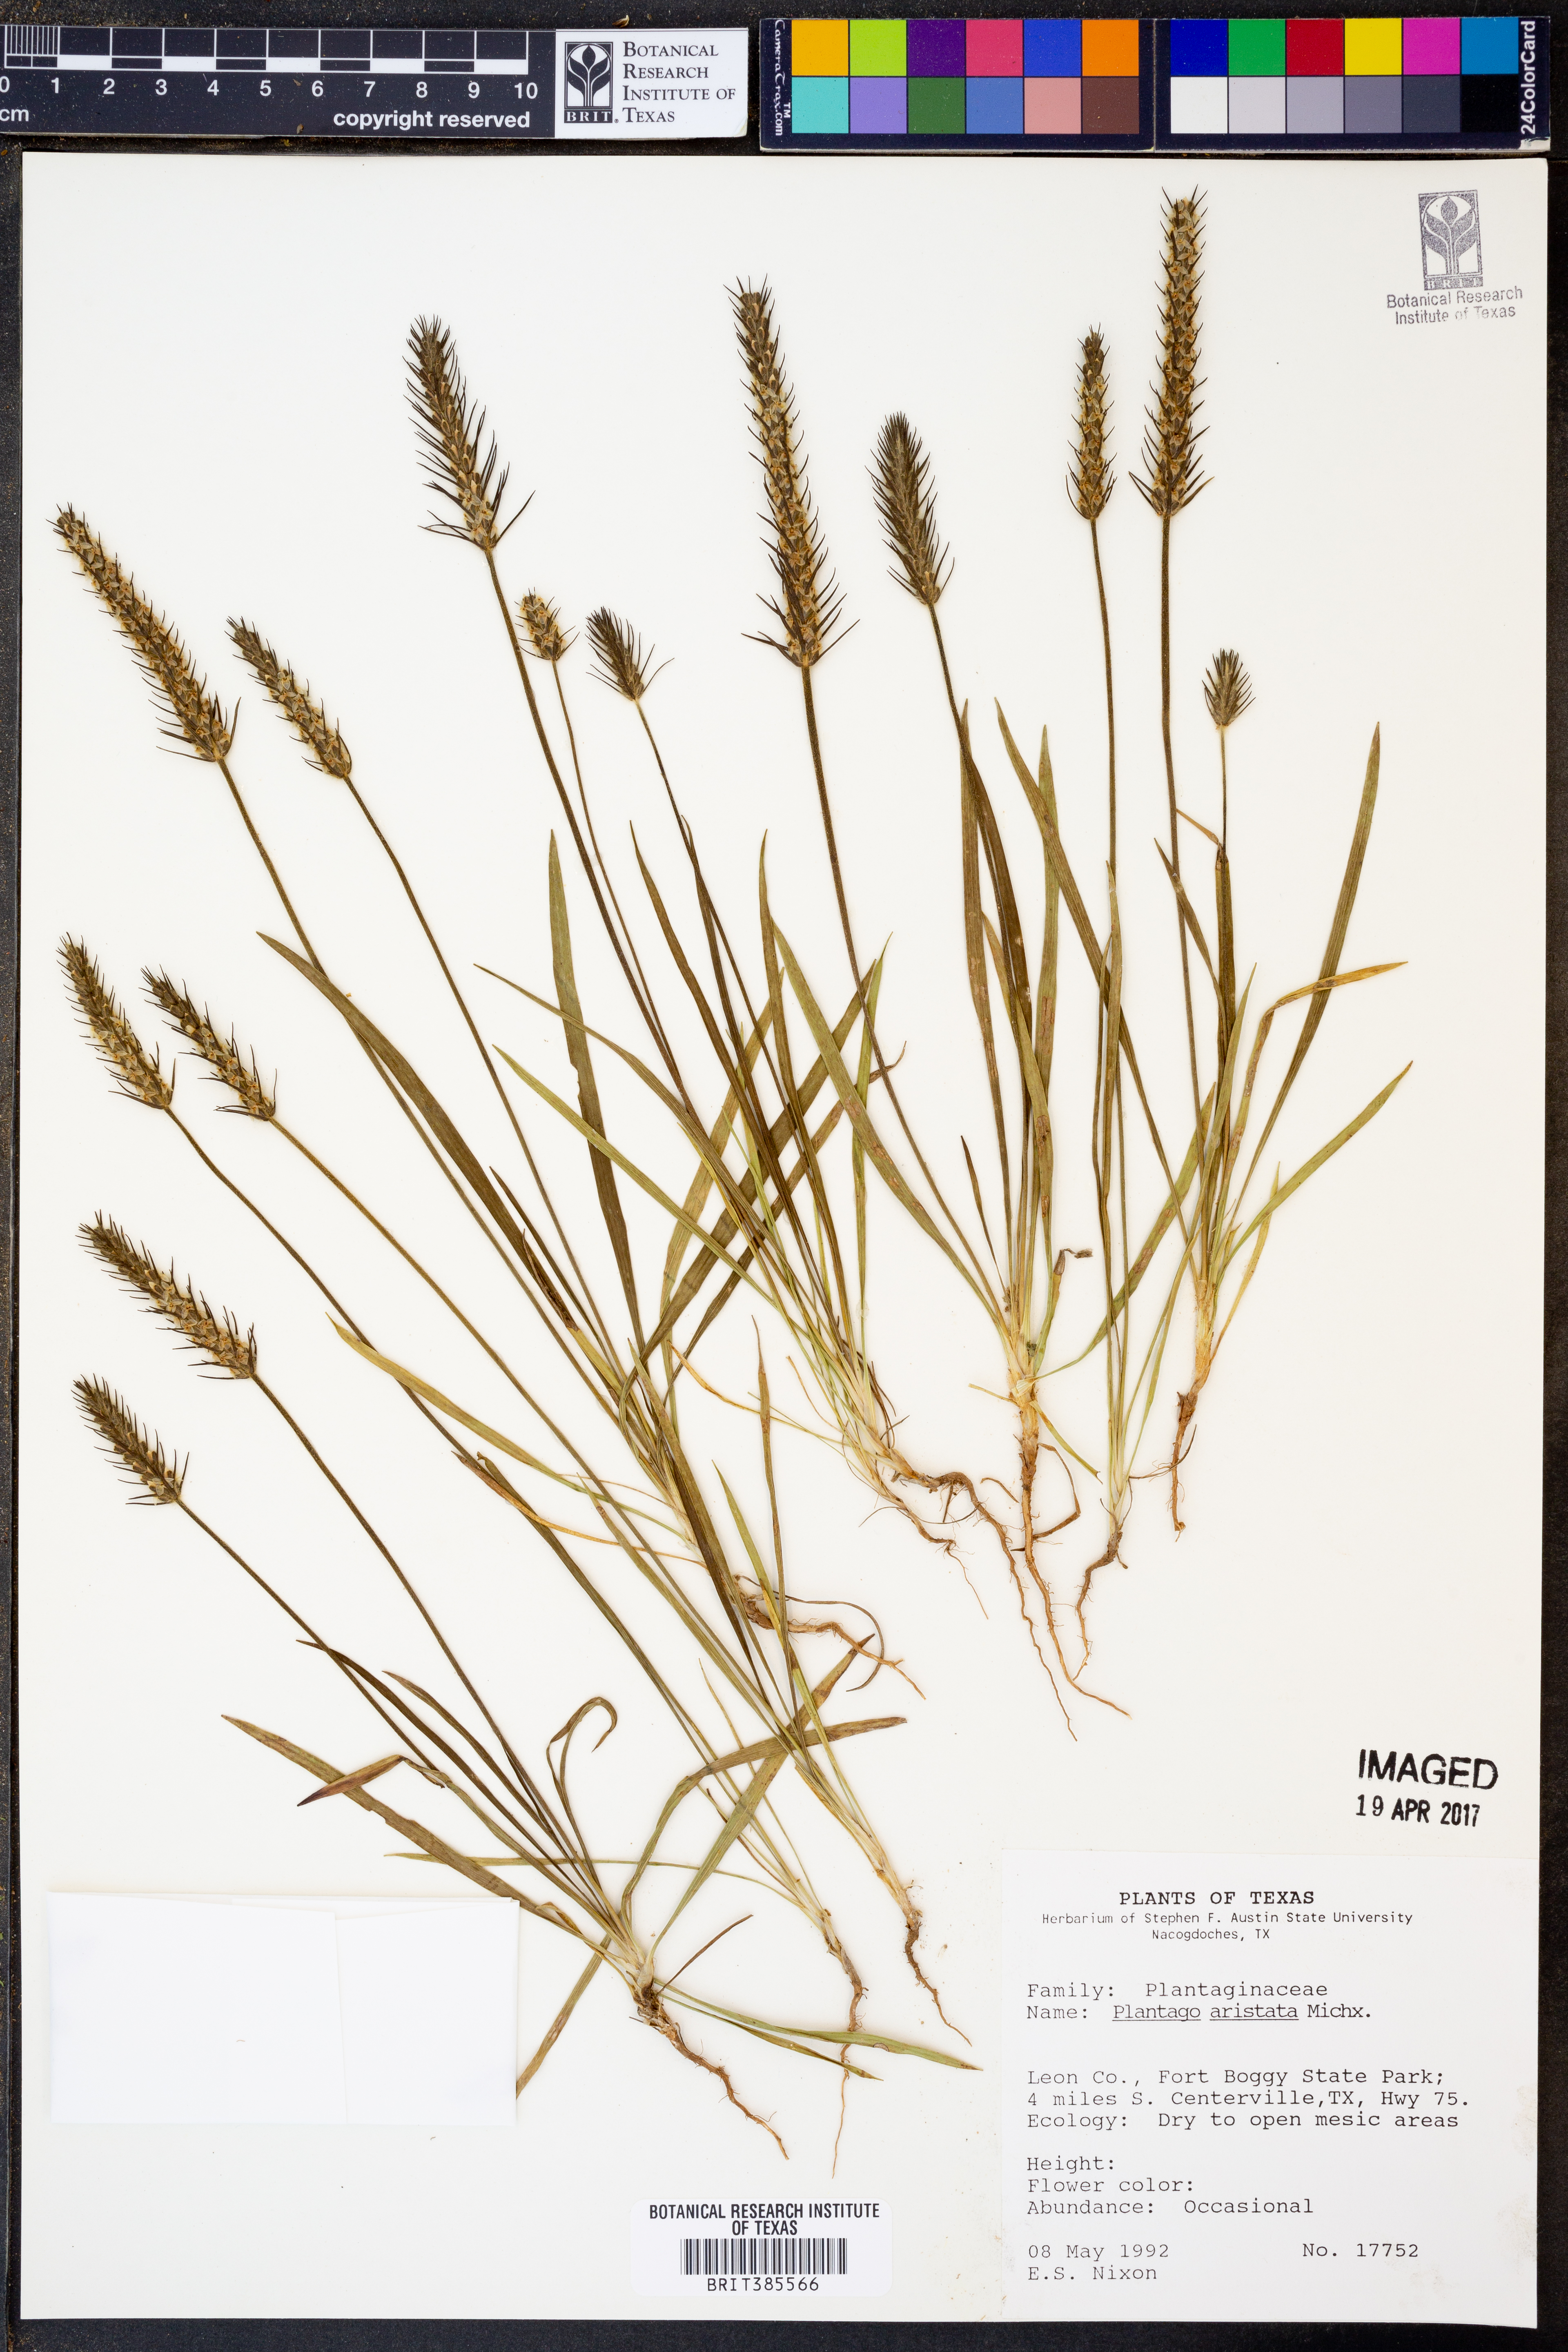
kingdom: Plantae
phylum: Tracheophyta
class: Magnoliopsida
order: Lamiales
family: Plantaginaceae
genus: Plantago
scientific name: Plantago aristata
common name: Bracted plantain
